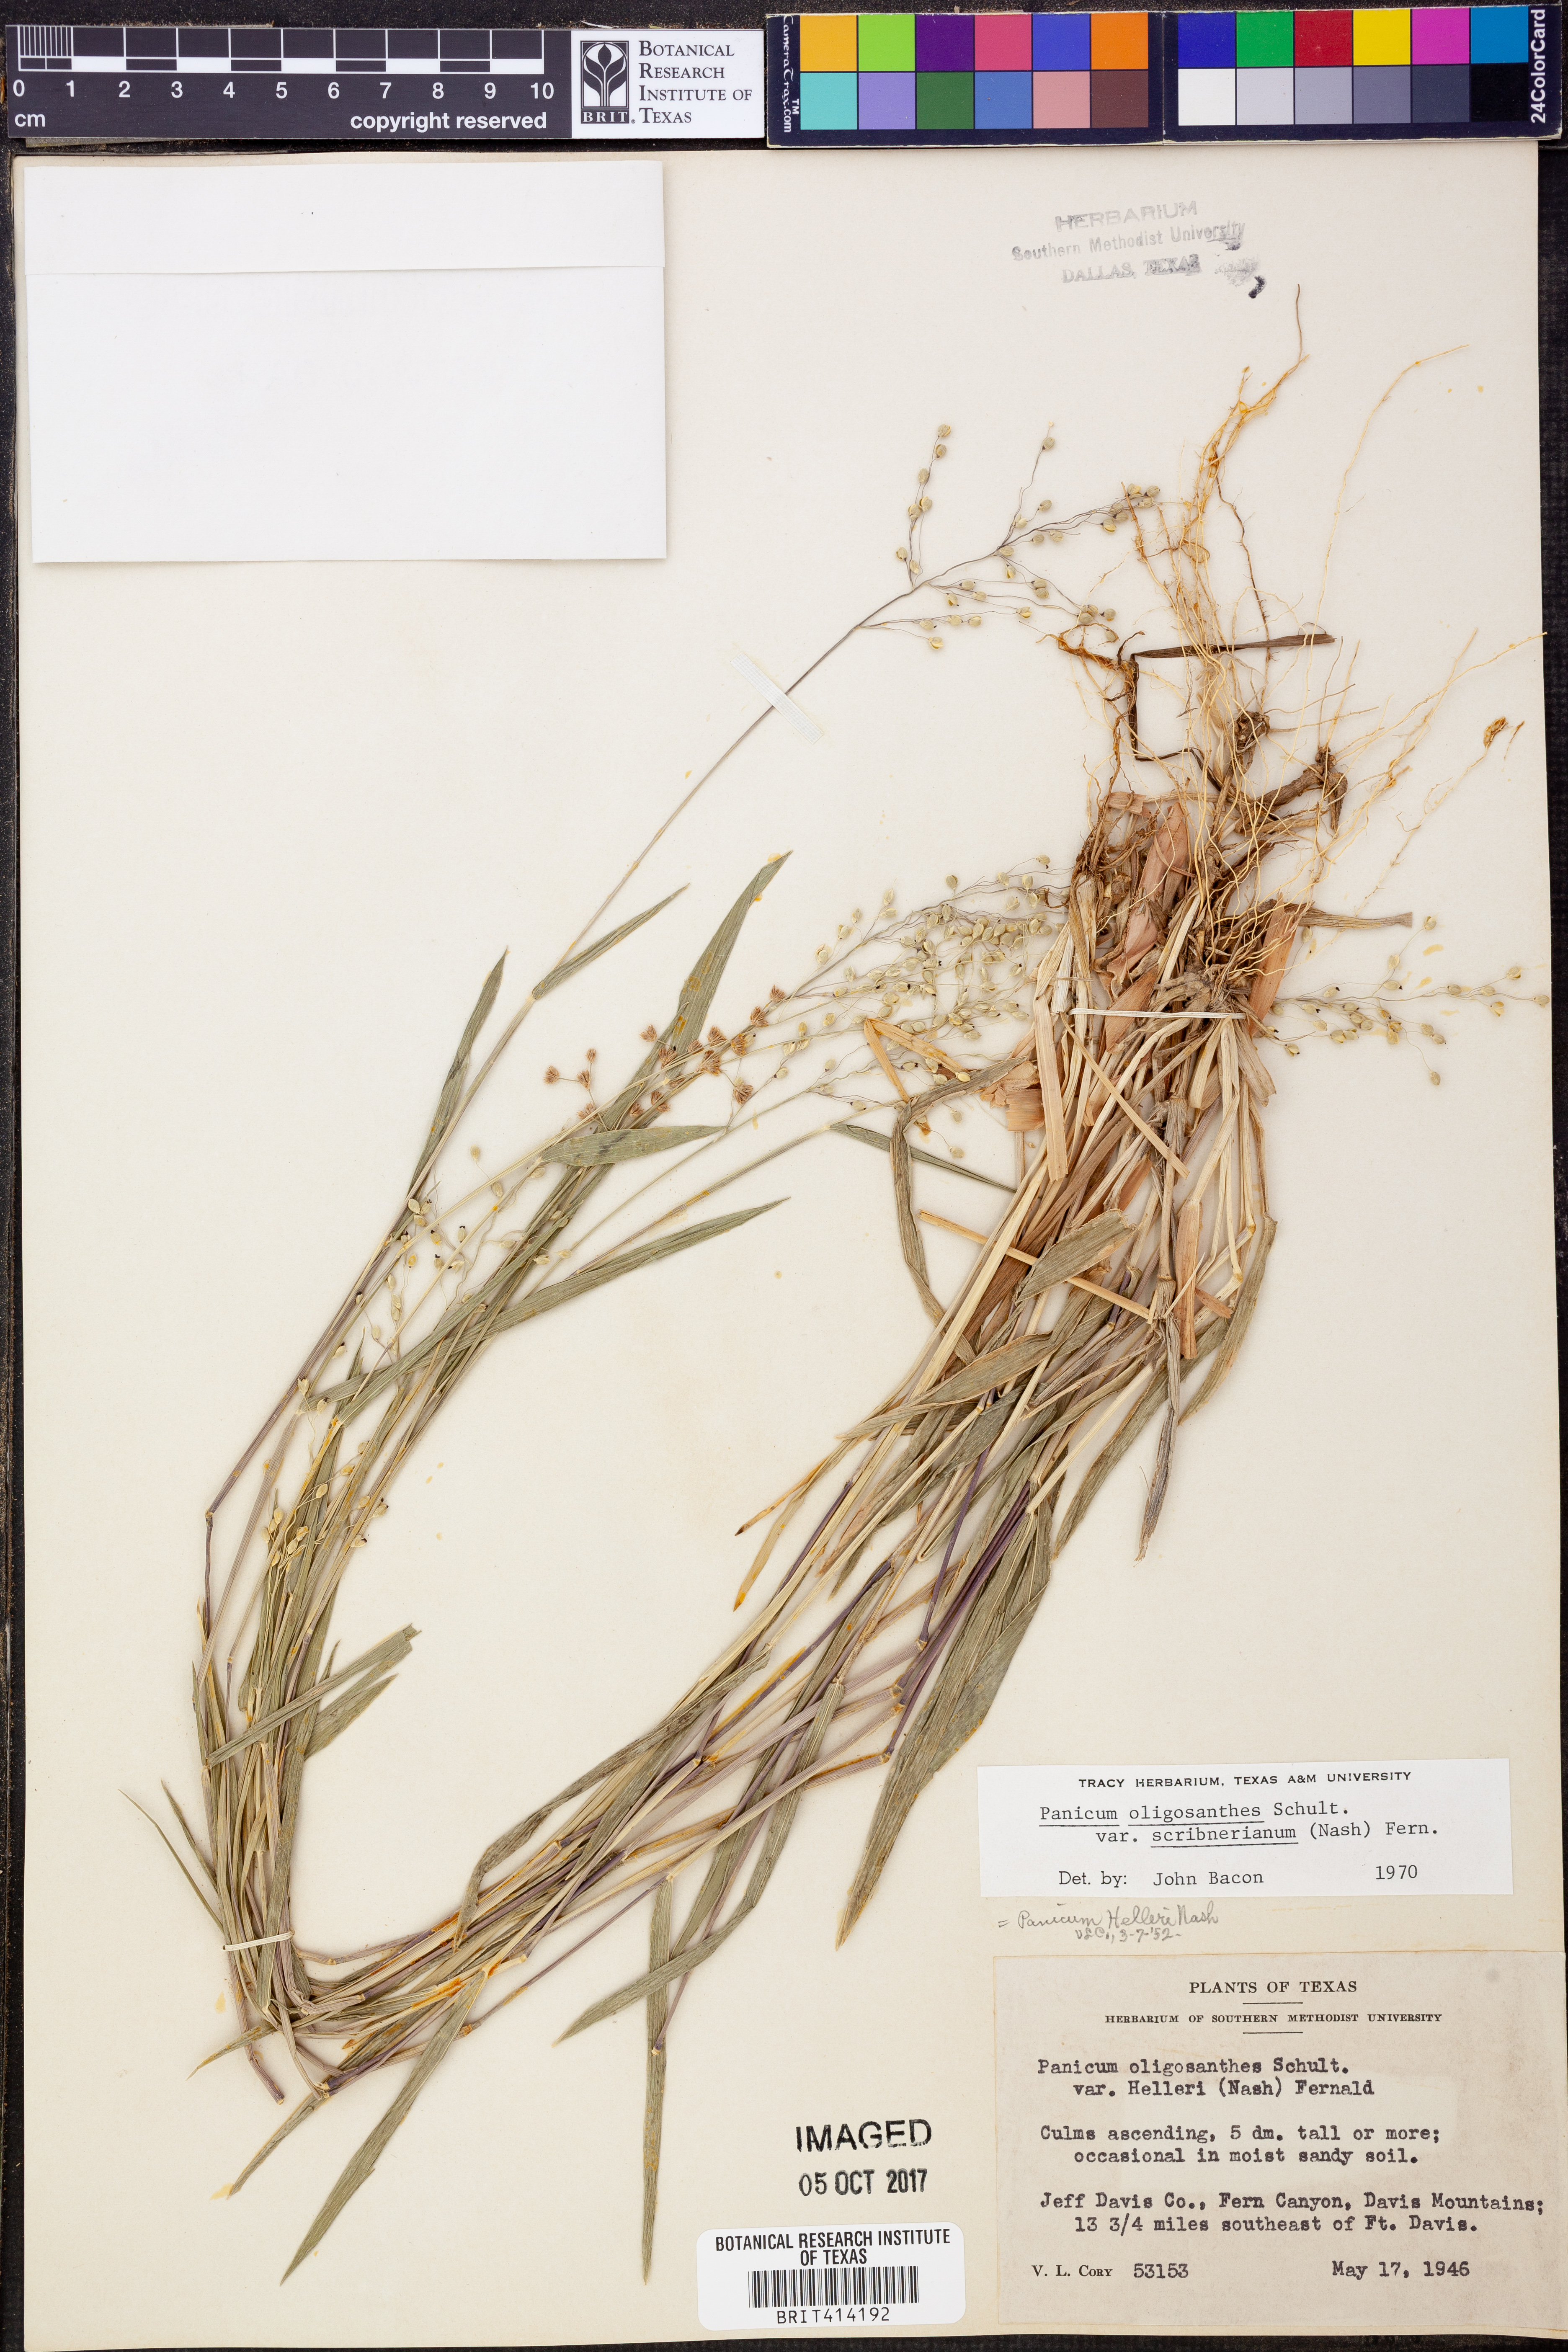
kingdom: Plantae
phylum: Tracheophyta
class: Liliopsida
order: Poales
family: Poaceae
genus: Dichanthelium
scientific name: Dichanthelium scribnerianum
